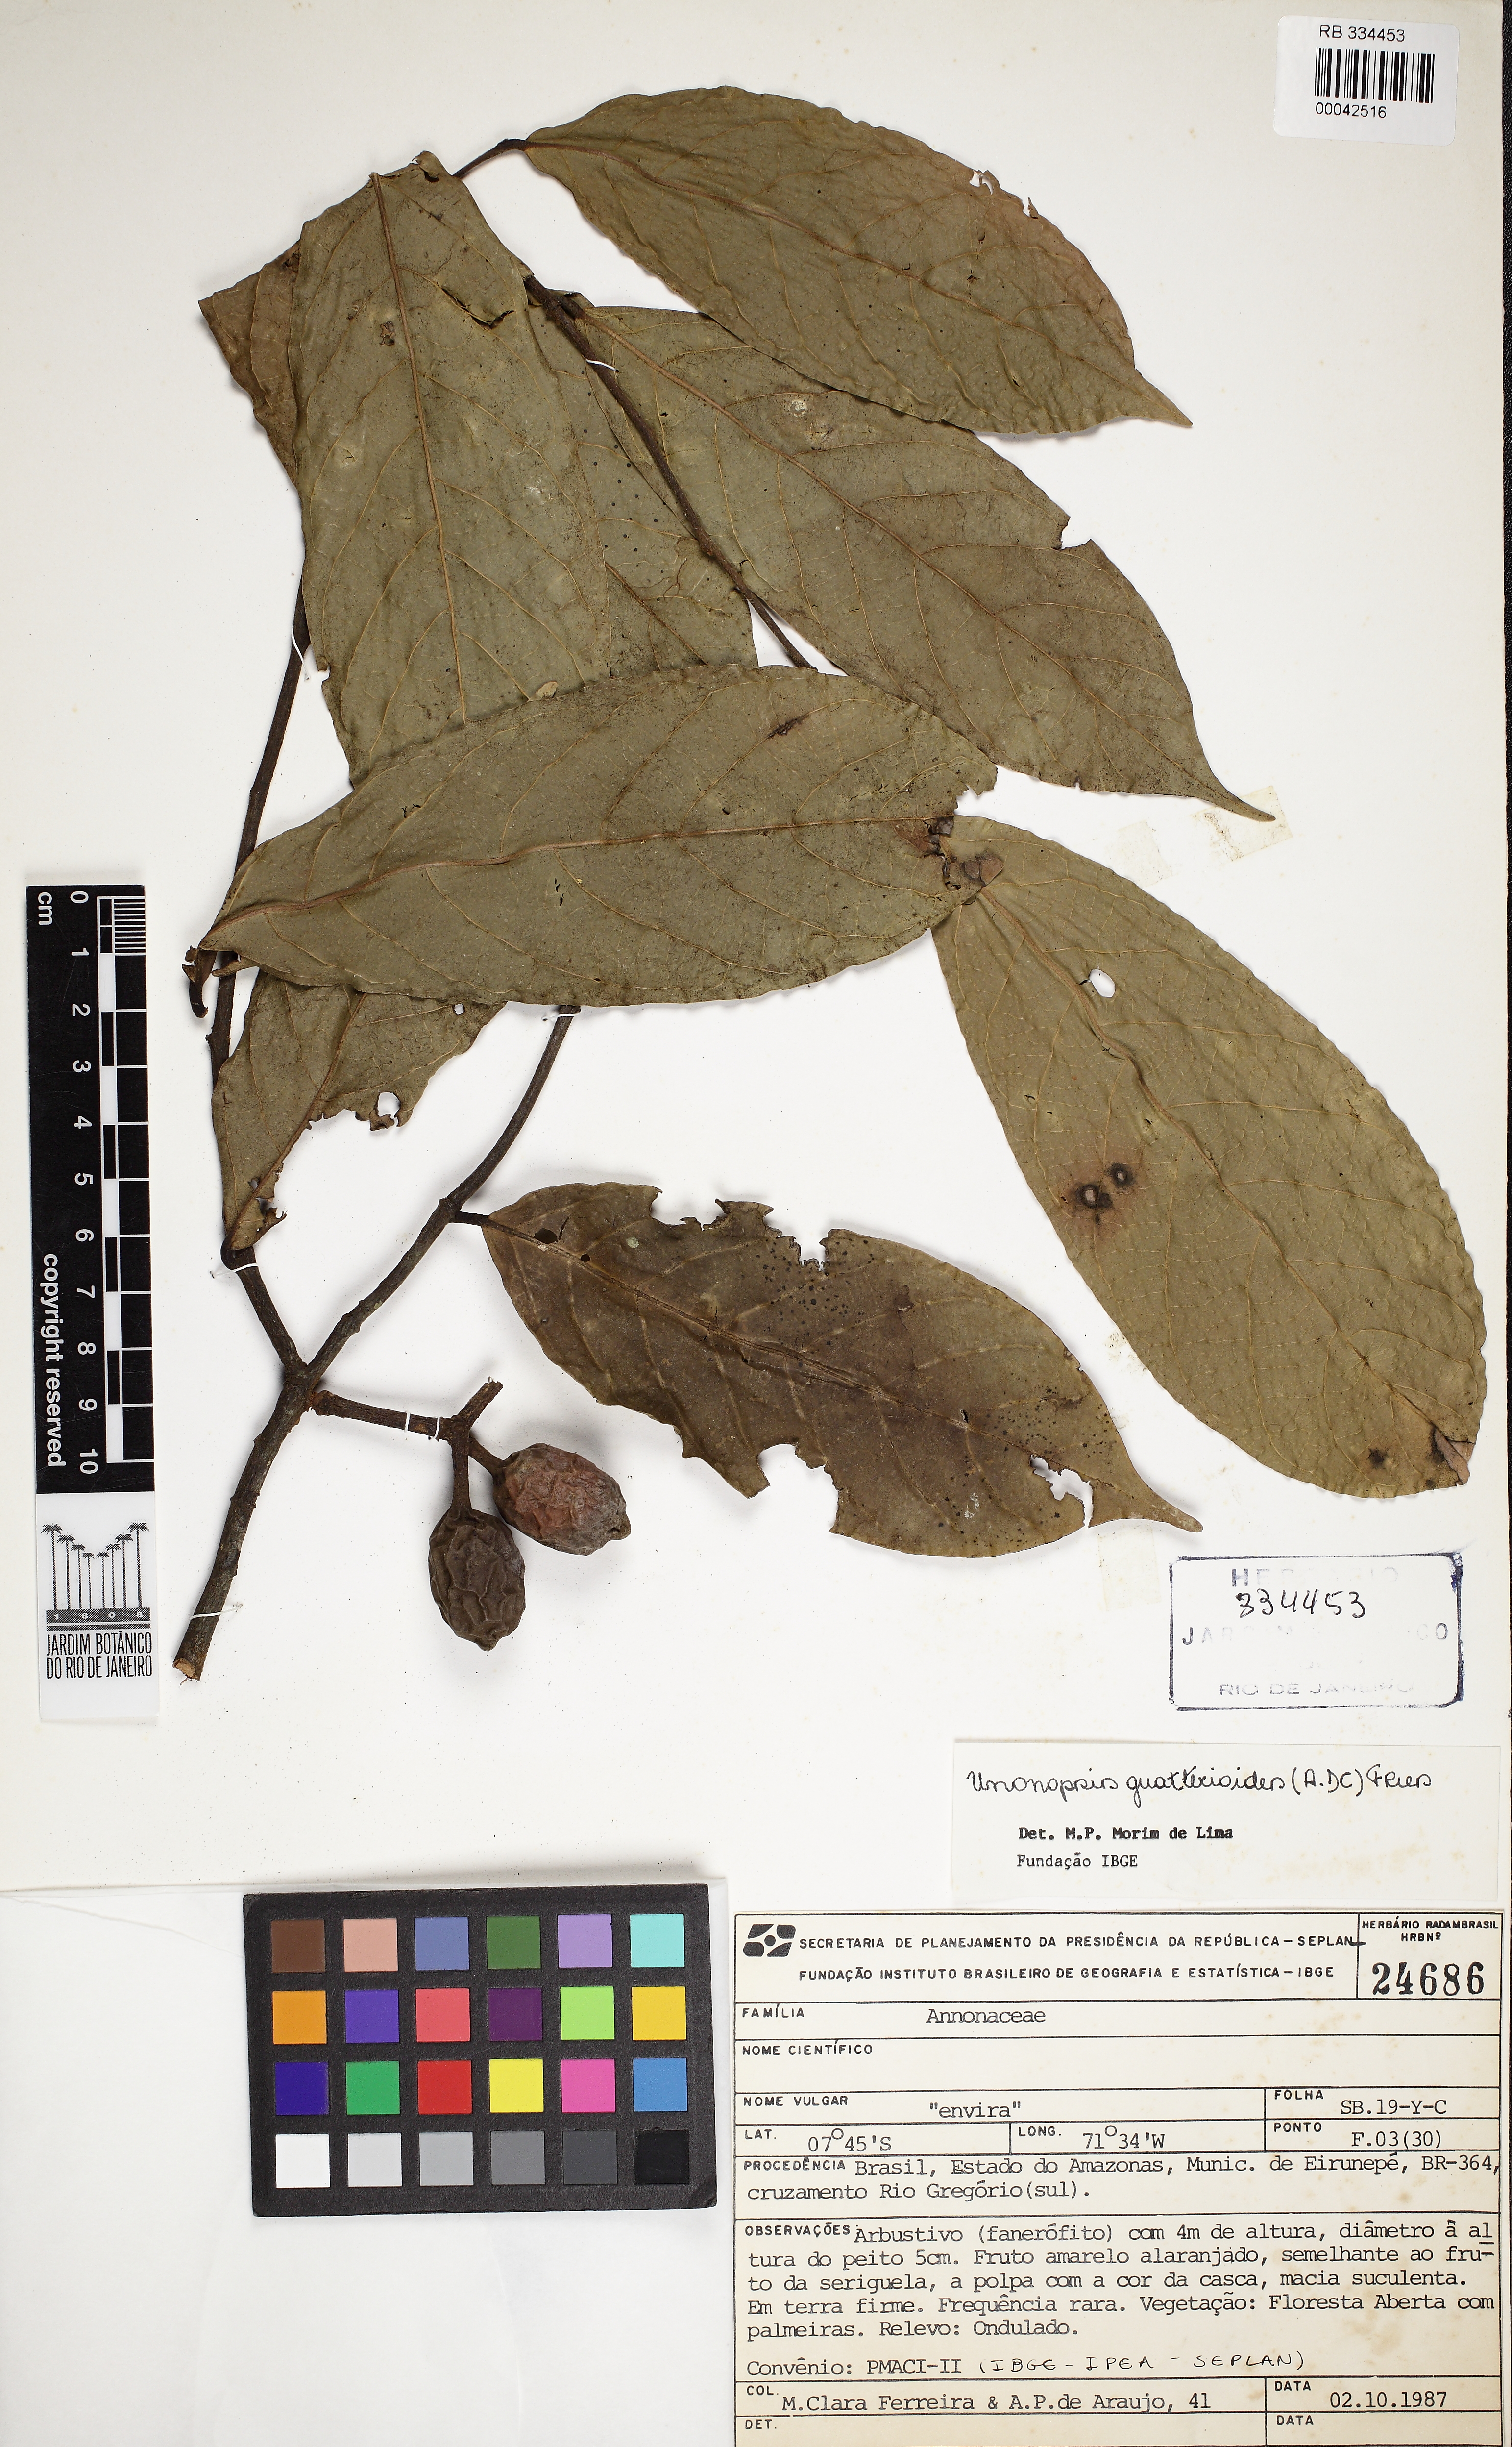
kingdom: Plantae
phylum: Tracheophyta
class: Magnoliopsida
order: Magnoliales
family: Annonaceae
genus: Unonopsis
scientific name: Unonopsis guatterioides
